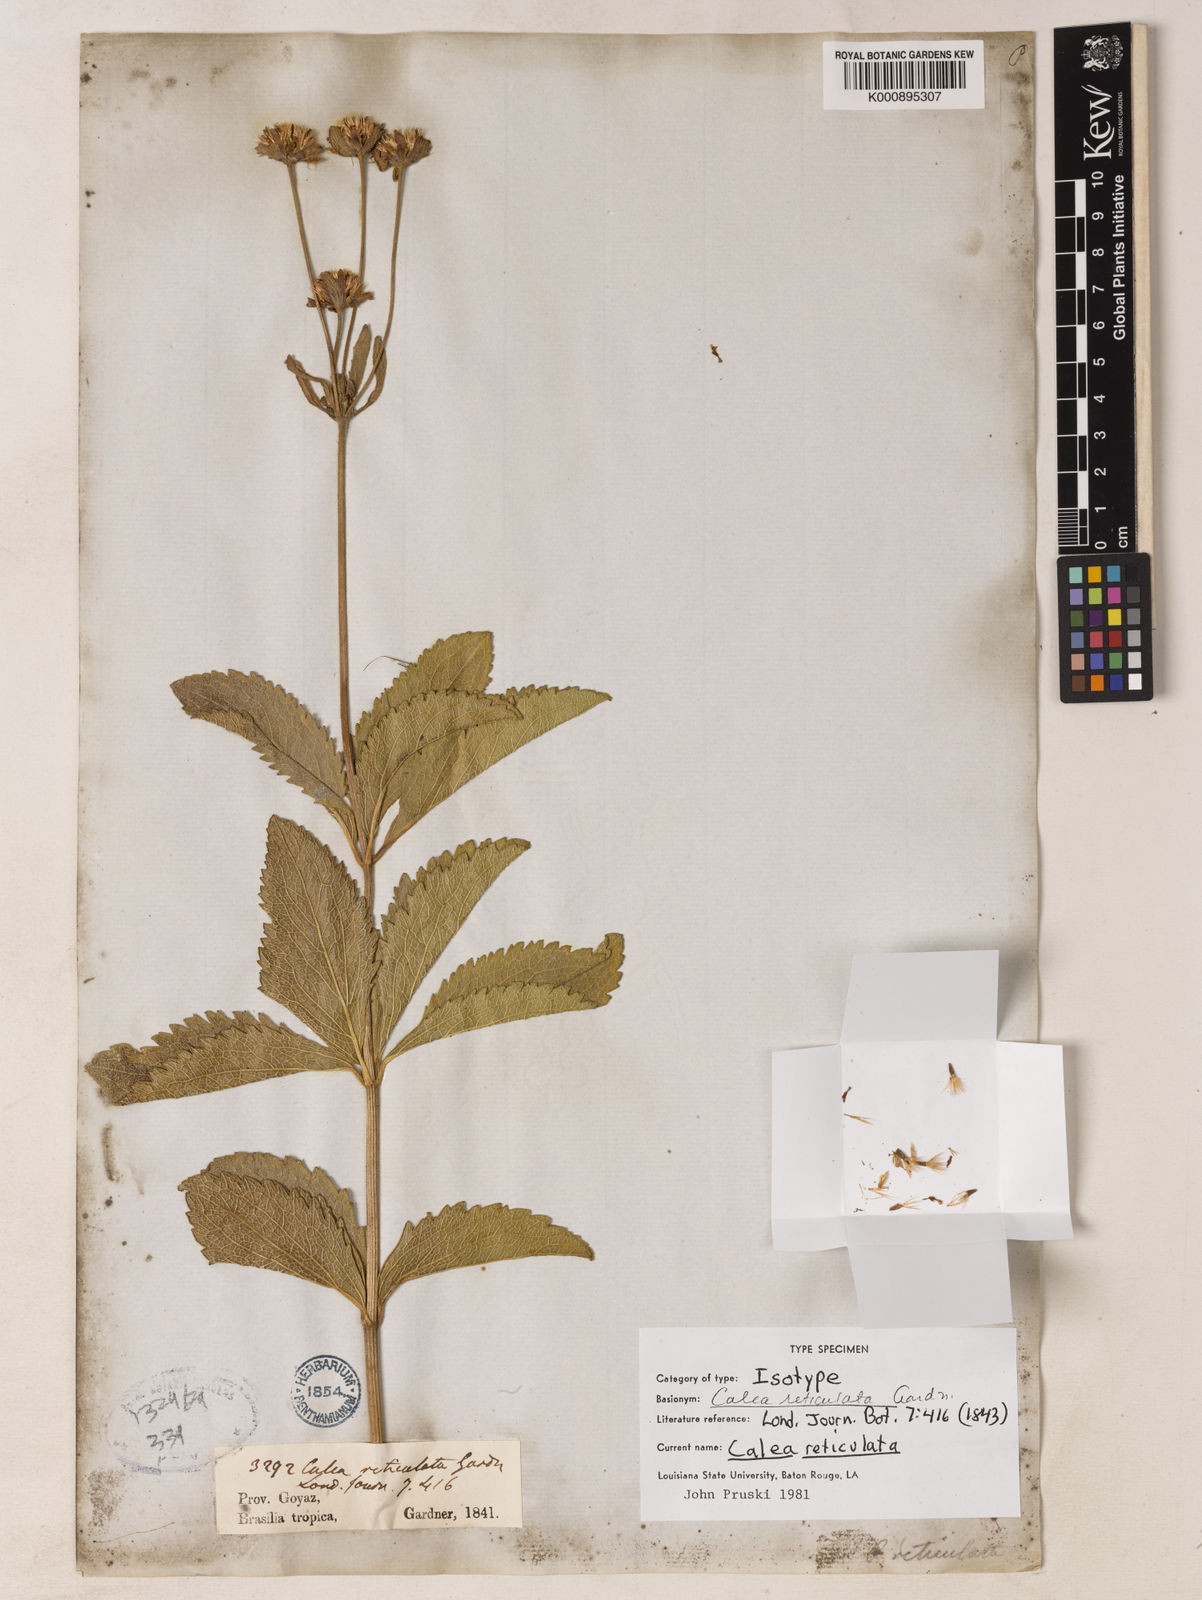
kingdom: Plantae
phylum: Tracheophyta
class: Magnoliopsida
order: Asterales
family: Asteraceae
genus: Calea
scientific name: Calea reticulata
